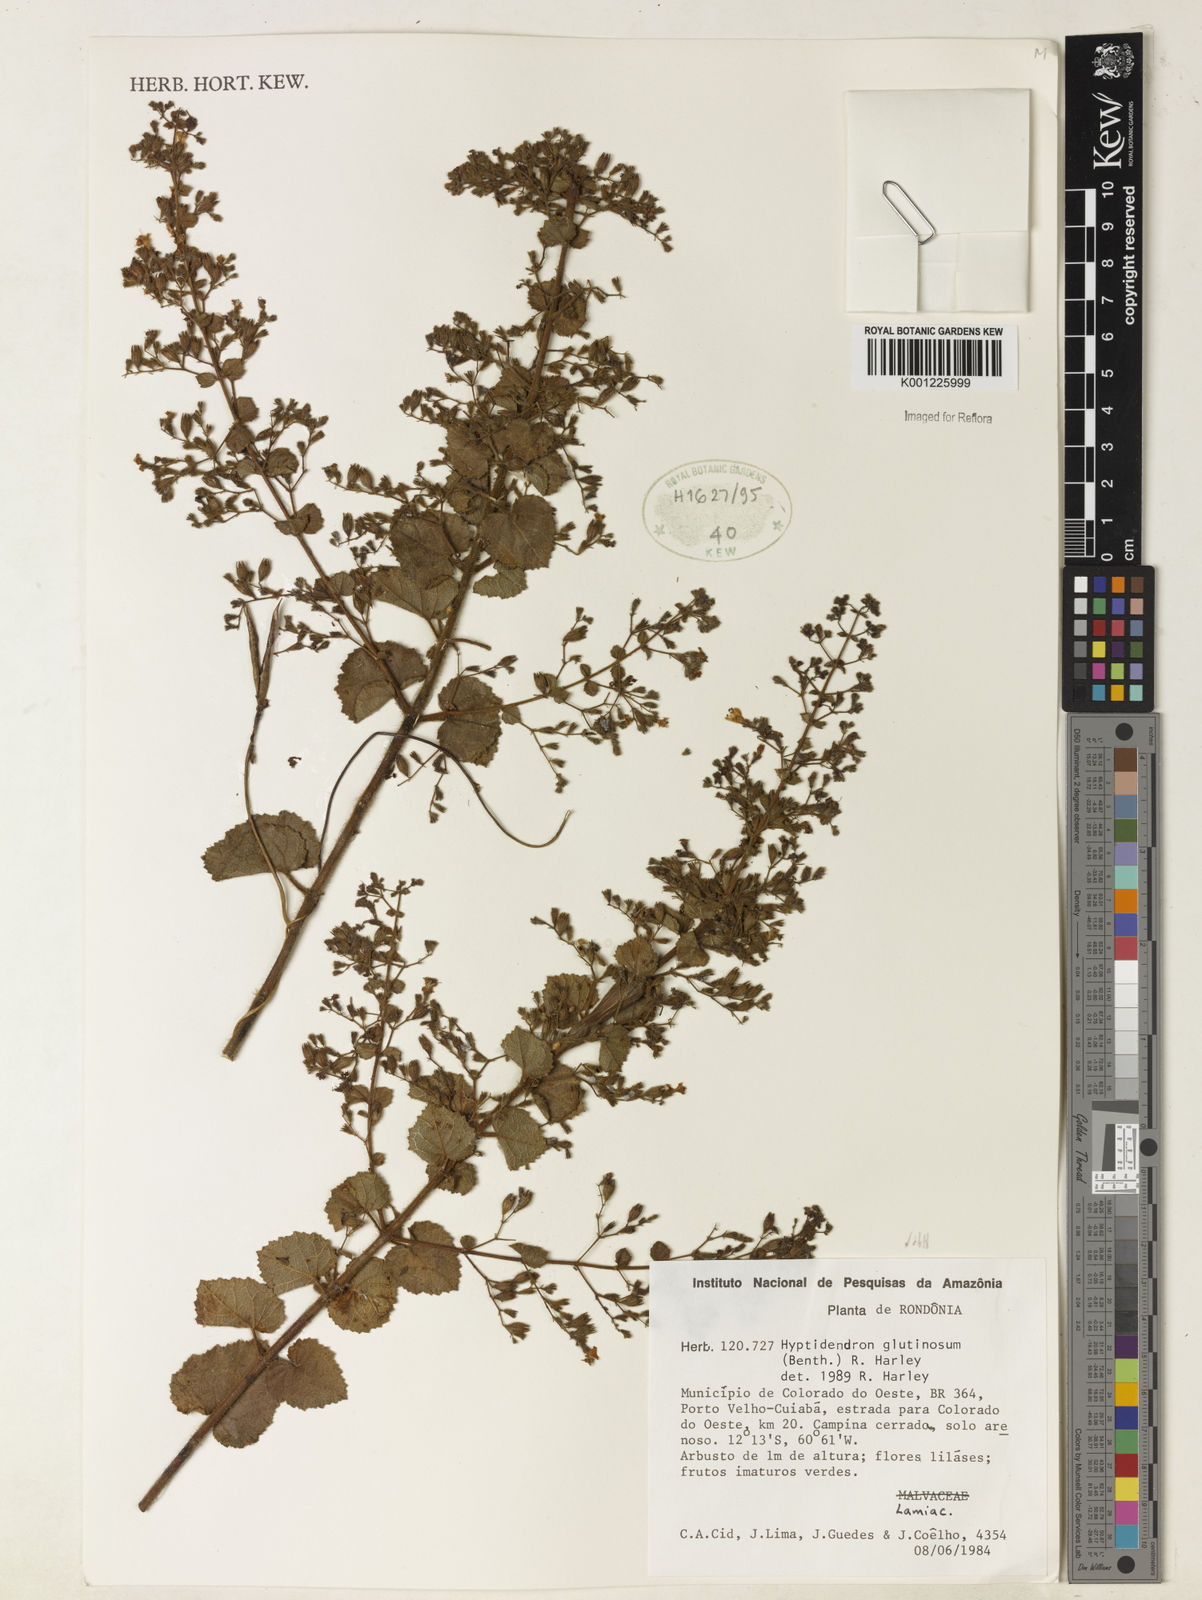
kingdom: Plantae
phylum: Tracheophyta
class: Magnoliopsida
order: Lamiales
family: Lamiaceae
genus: Hyptidendron
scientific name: Hyptidendron glutinosum
